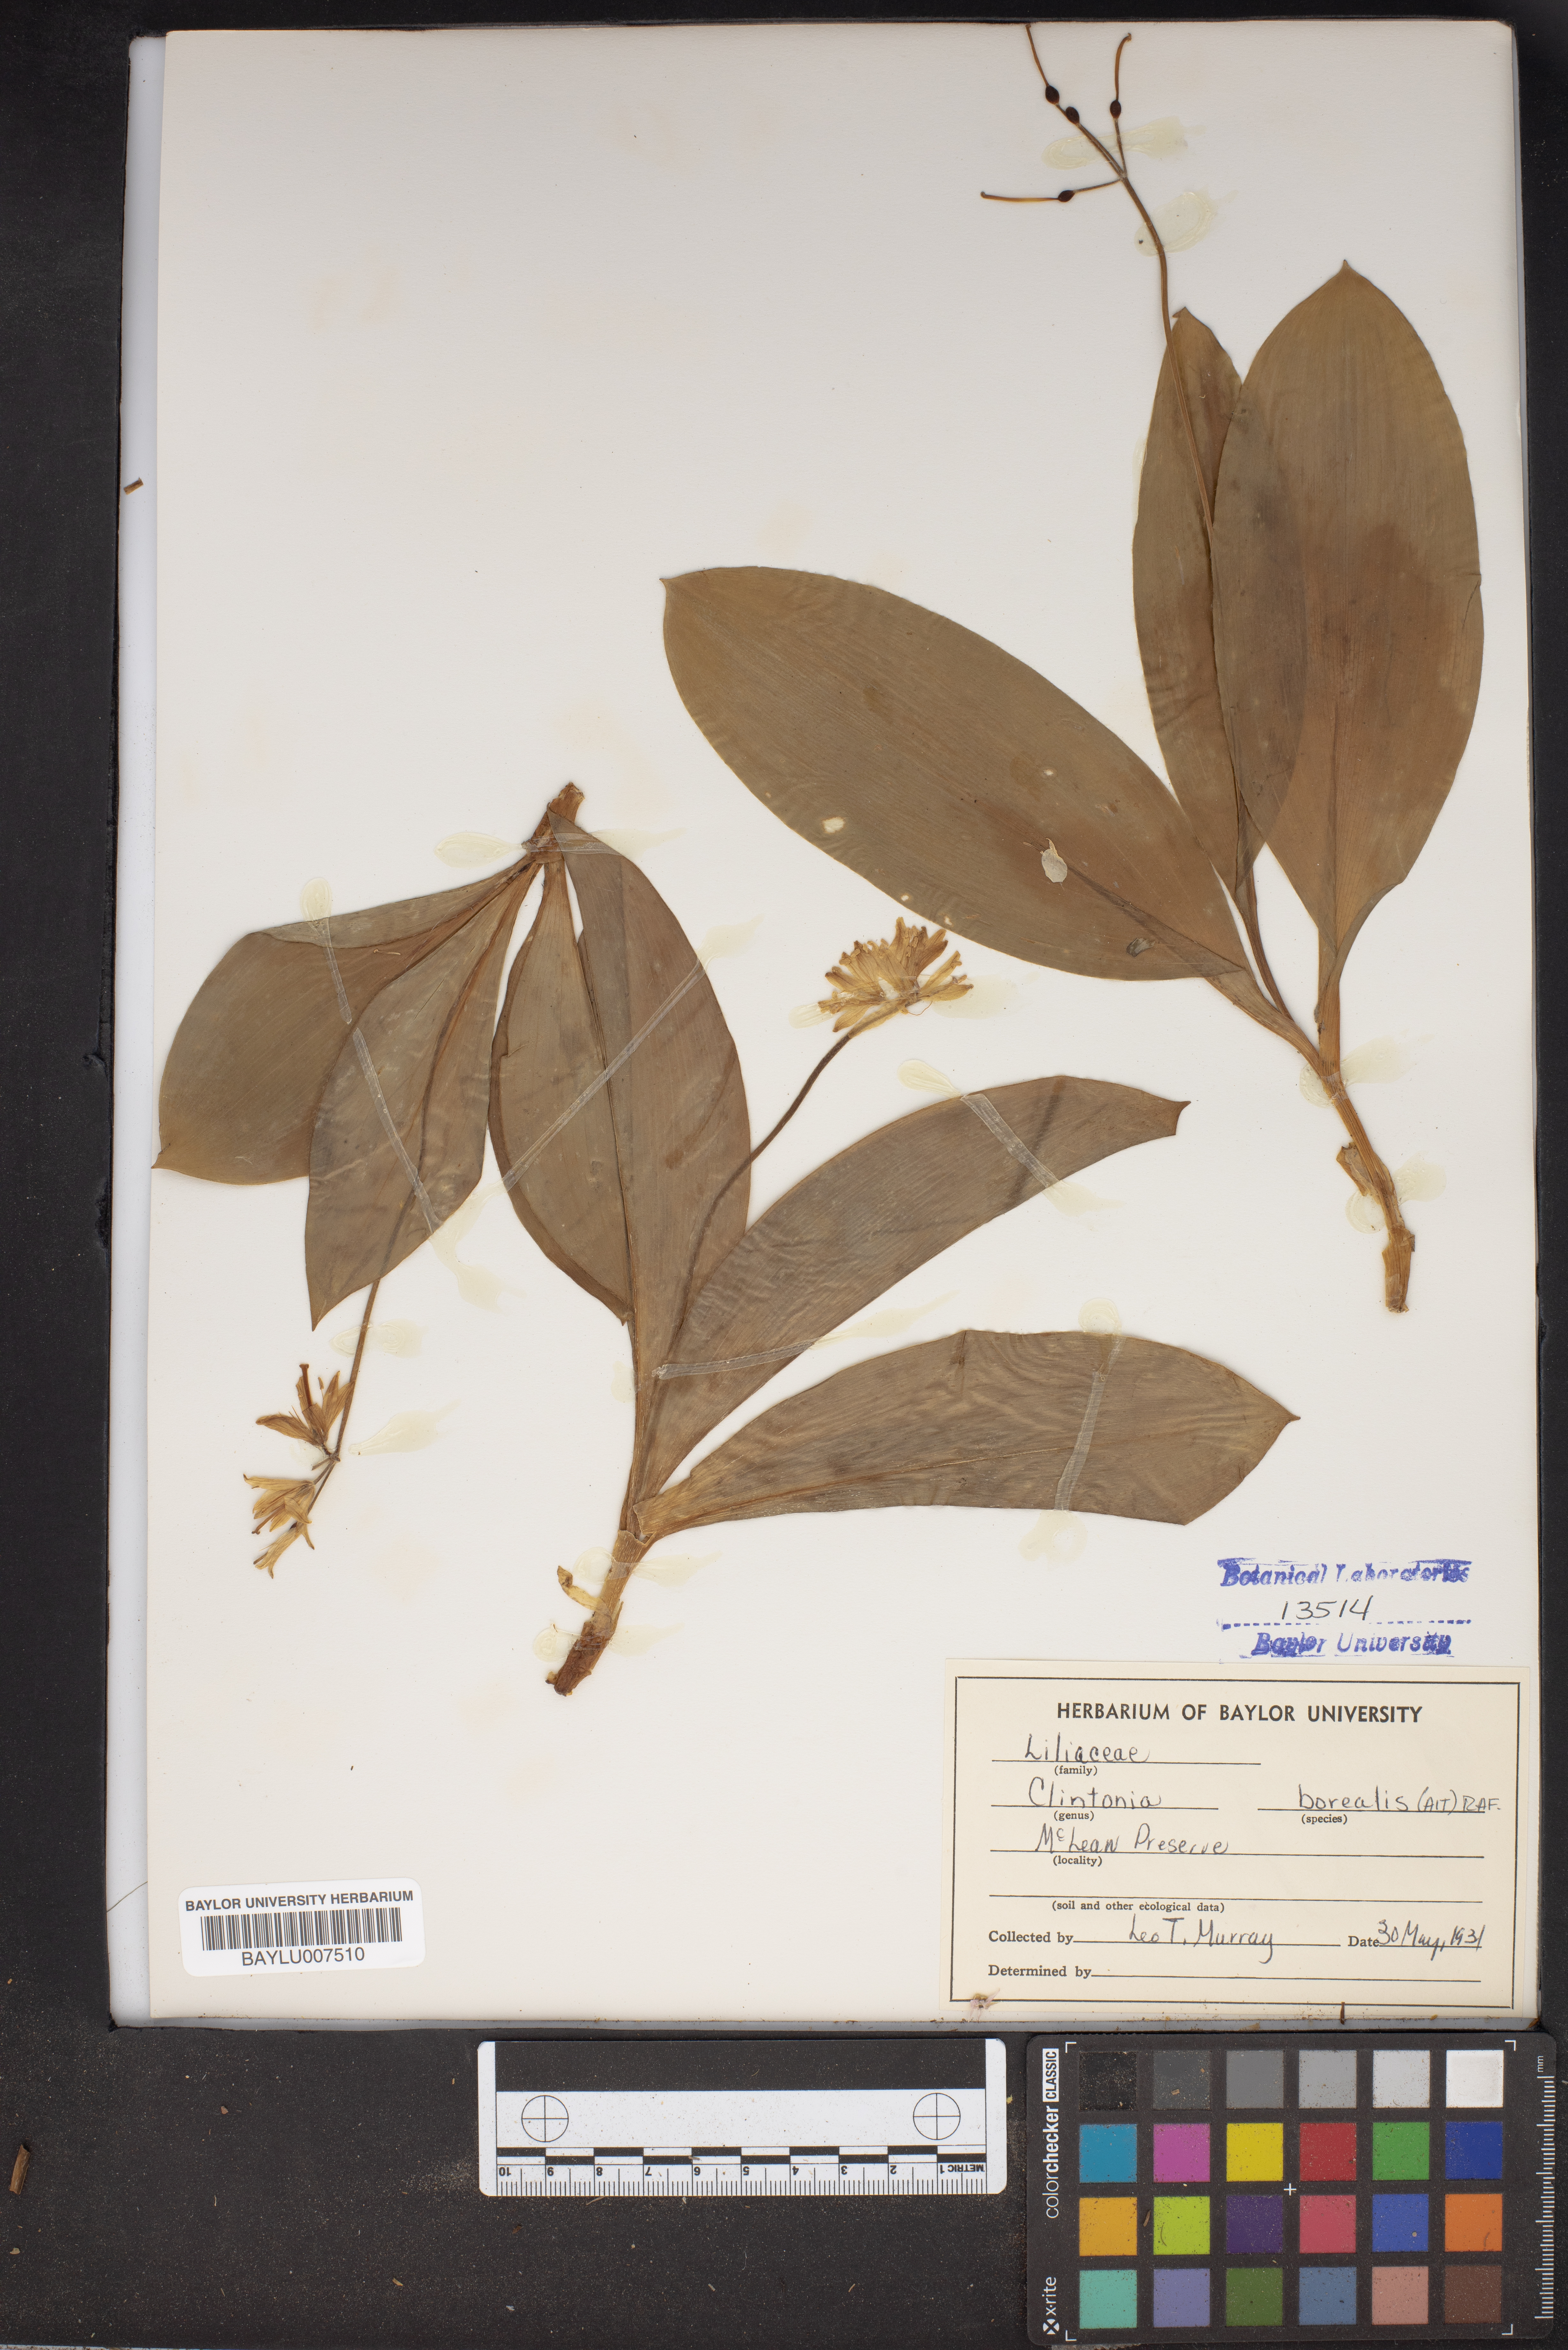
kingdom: Plantae
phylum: Tracheophyta
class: Liliopsida
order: Liliales
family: Liliaceae
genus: Clintonia
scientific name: Clintonia borealis
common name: Yellow clintonia
